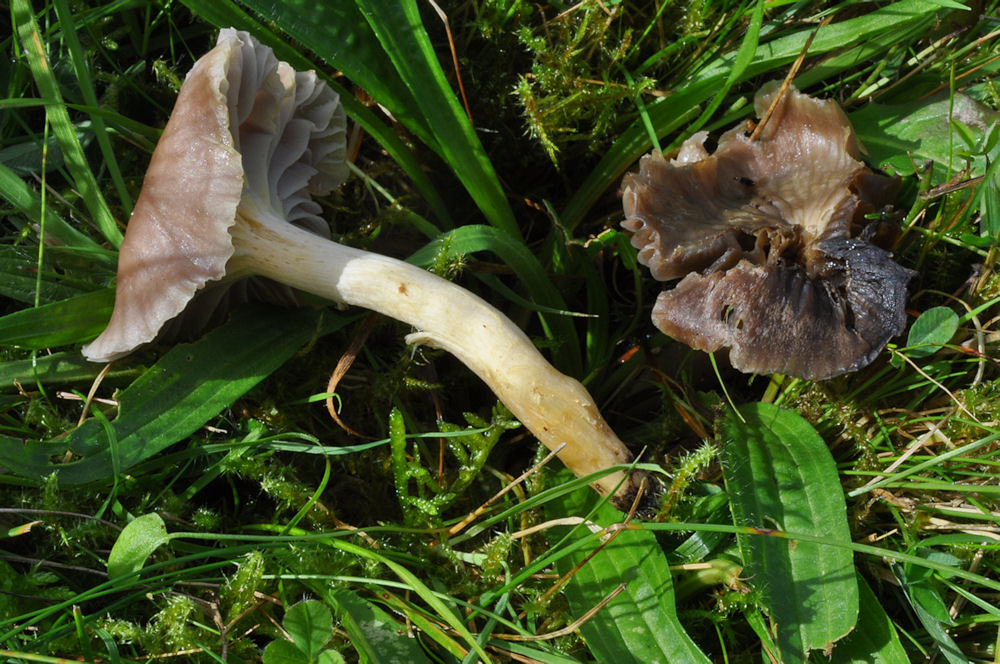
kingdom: Fungi
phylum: Basidiomycota
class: Agaricomycetes
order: Agaricales
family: Hygrophoraceae
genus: Cuphophyllus
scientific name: Cuphophyllus flavipes
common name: gulfodet vokshat
